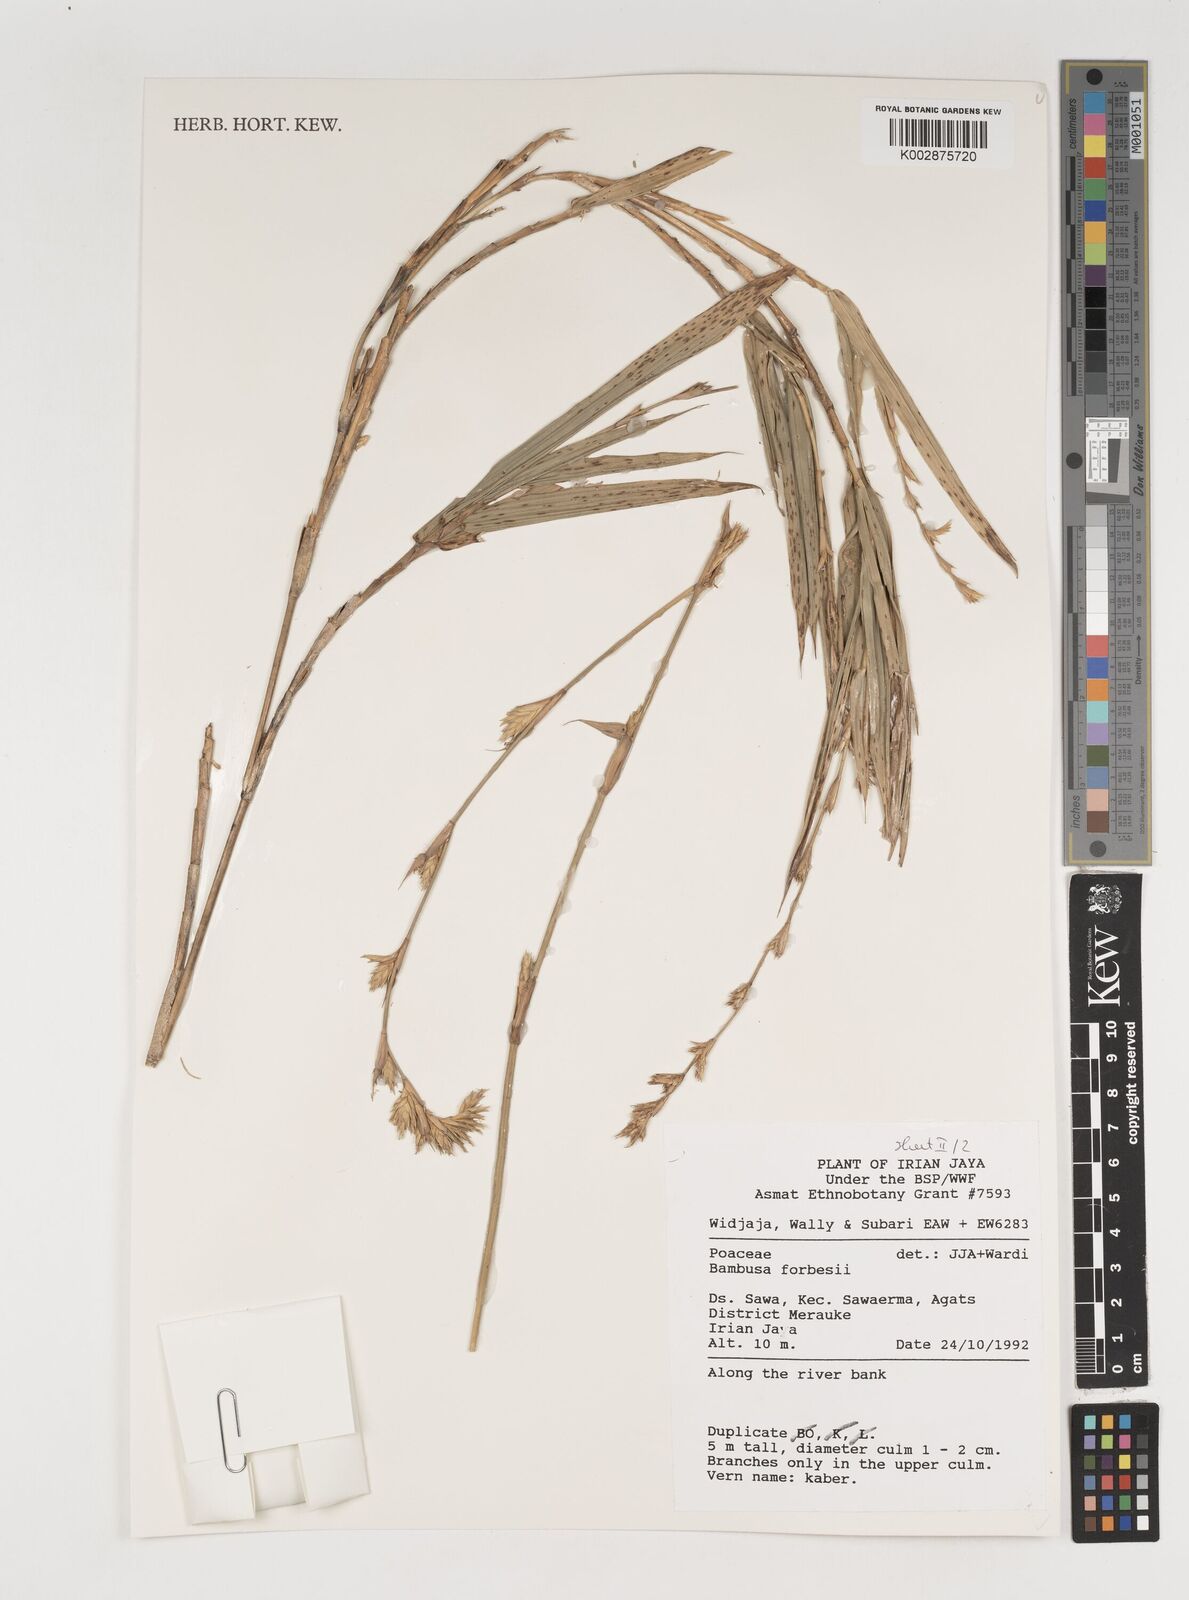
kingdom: Plantae
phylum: Tracheophyta
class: Liliopsida
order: Poales
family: Poaceae
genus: Neololeba
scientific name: Neololeba atra
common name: Cape bamboo
